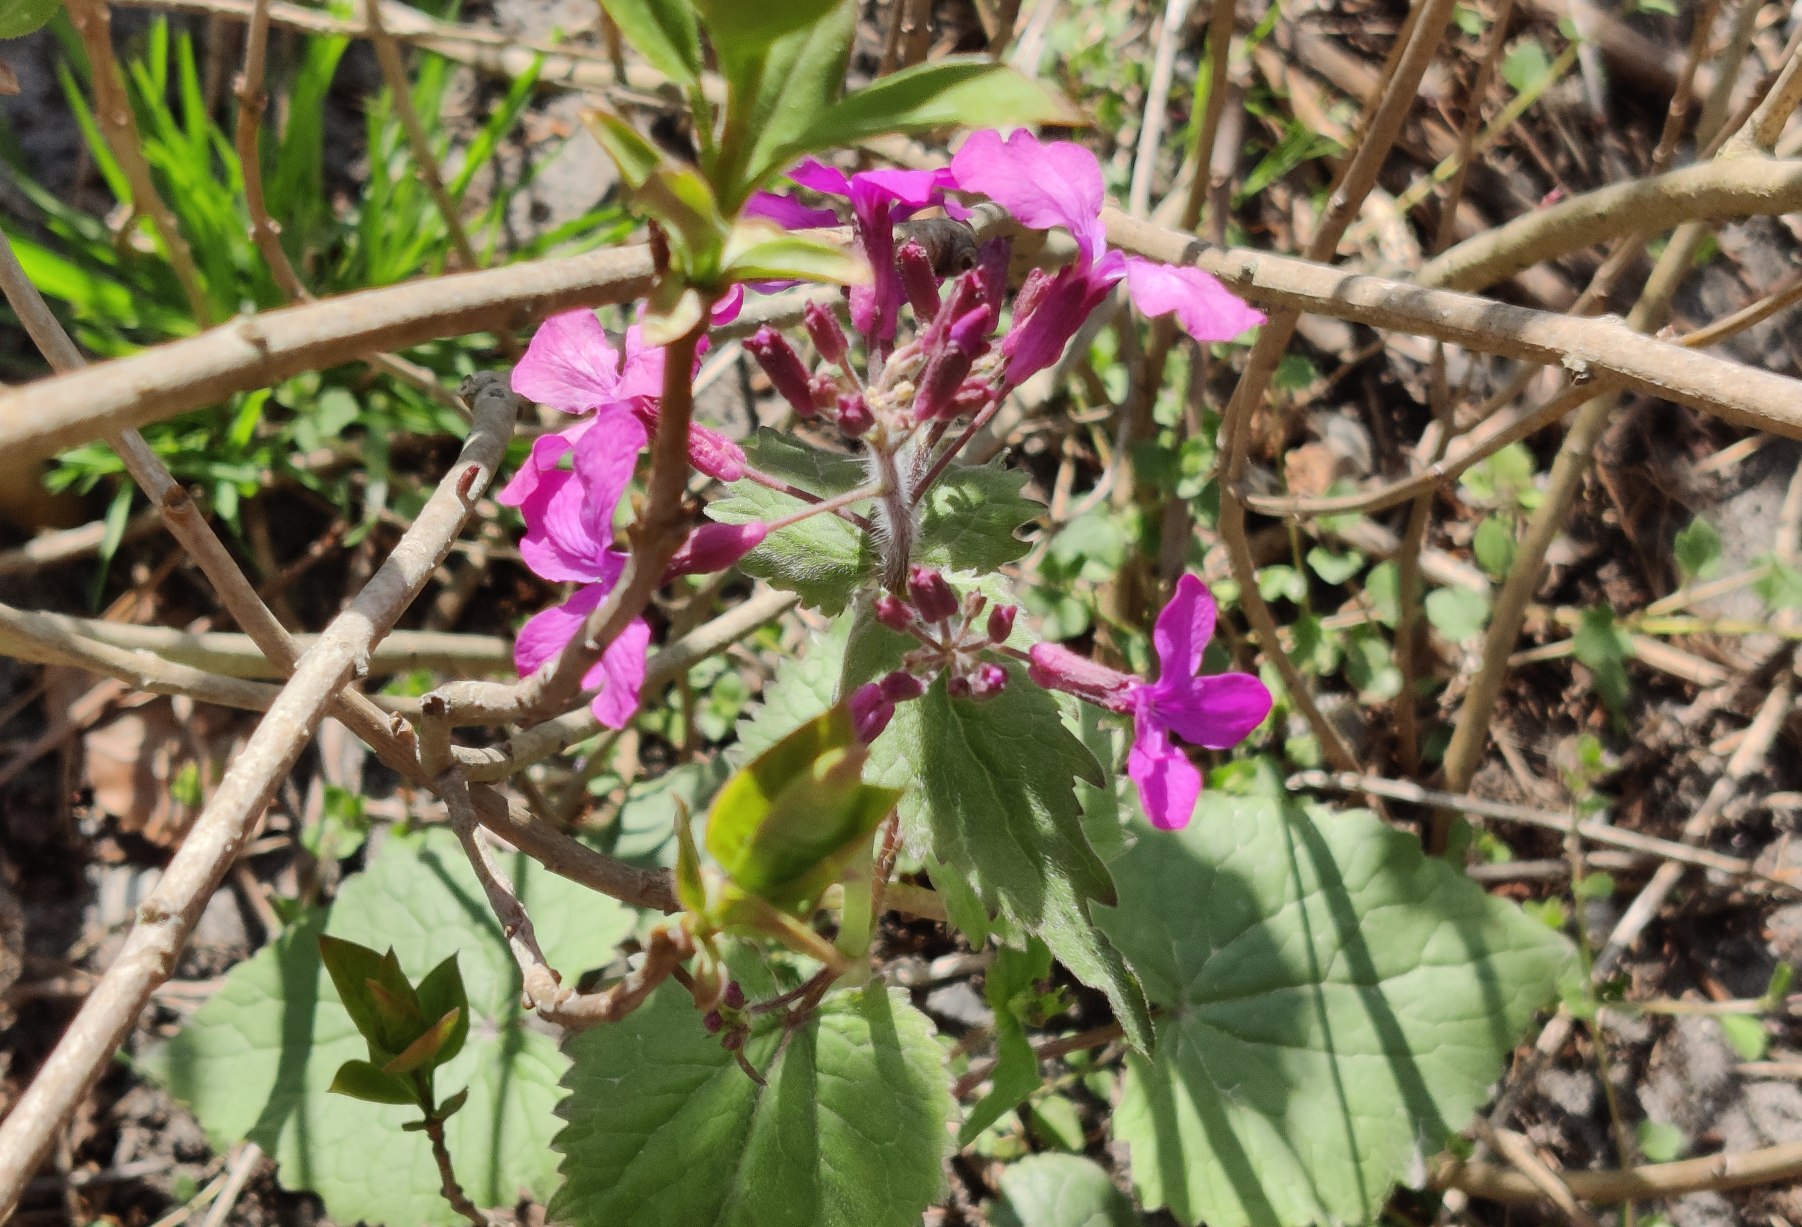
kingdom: Plantae
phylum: Tracheophyta
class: Magnoliopsida
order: Brassicales
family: Brassicaceae
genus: Lunaria
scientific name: Lunaria annua
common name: Judaspenge
